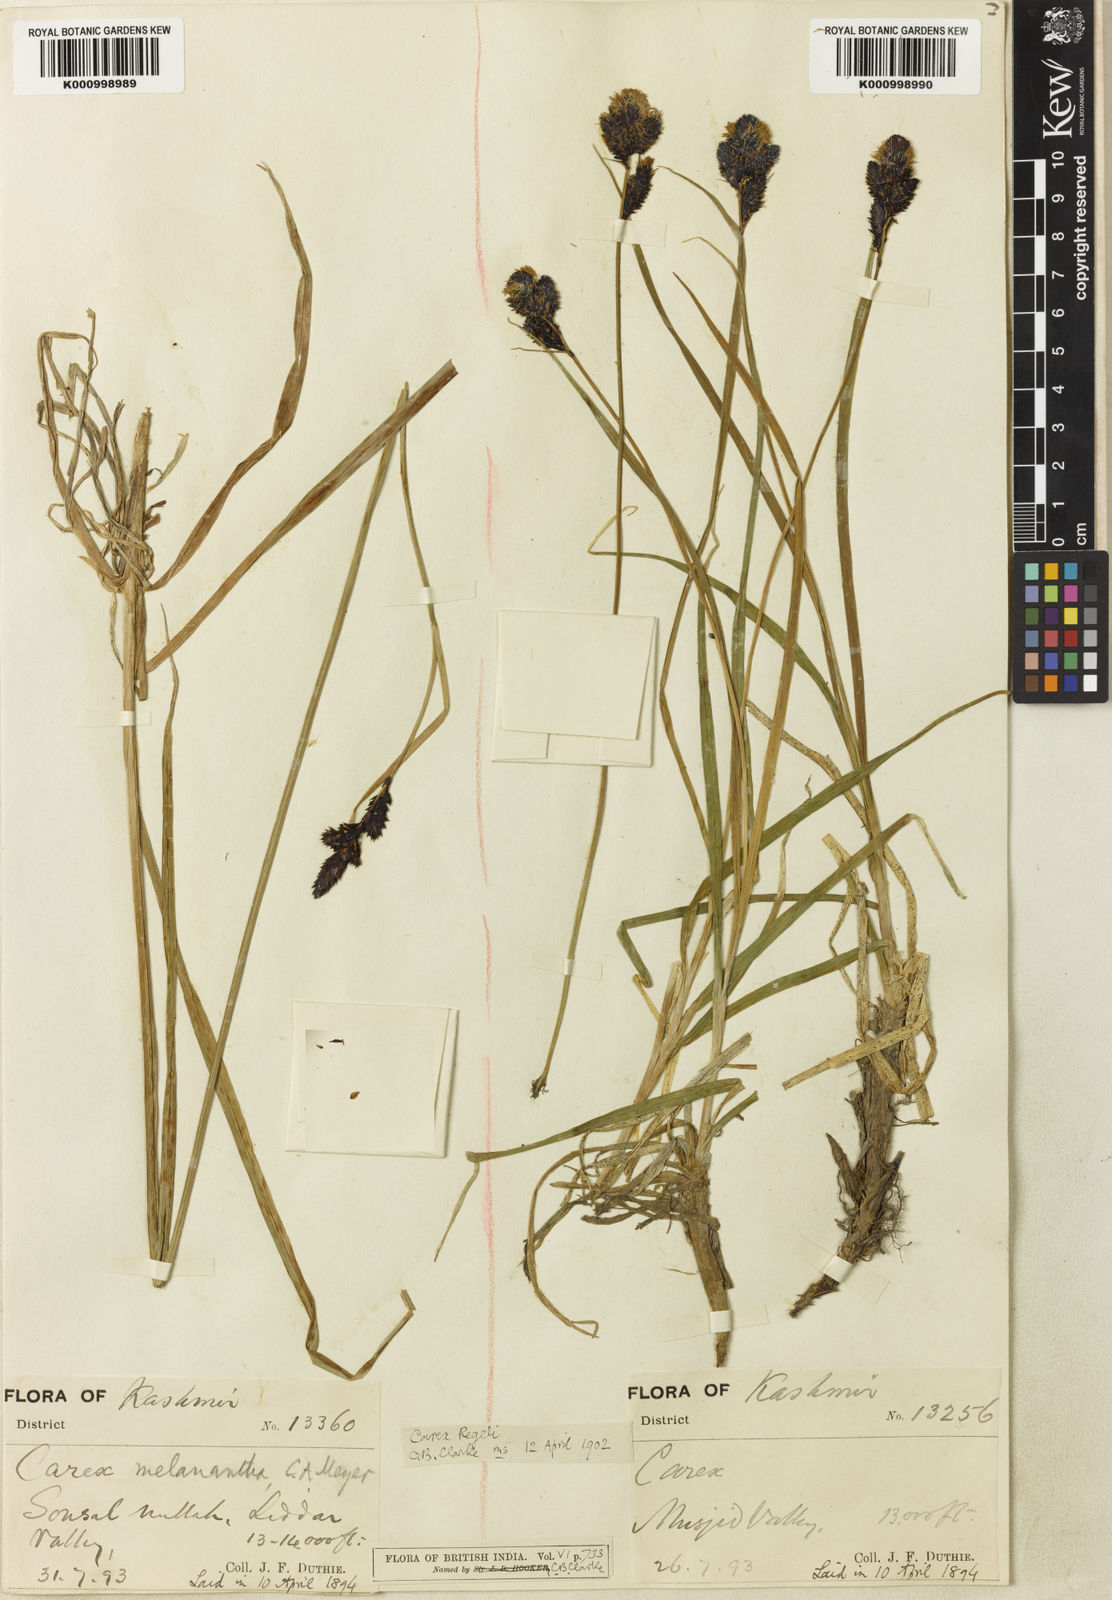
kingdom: Plantae
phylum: Tracheophyta
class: Liliopsida
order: Poales
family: Cyperaceae
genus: Carex
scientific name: Carex melanantha
